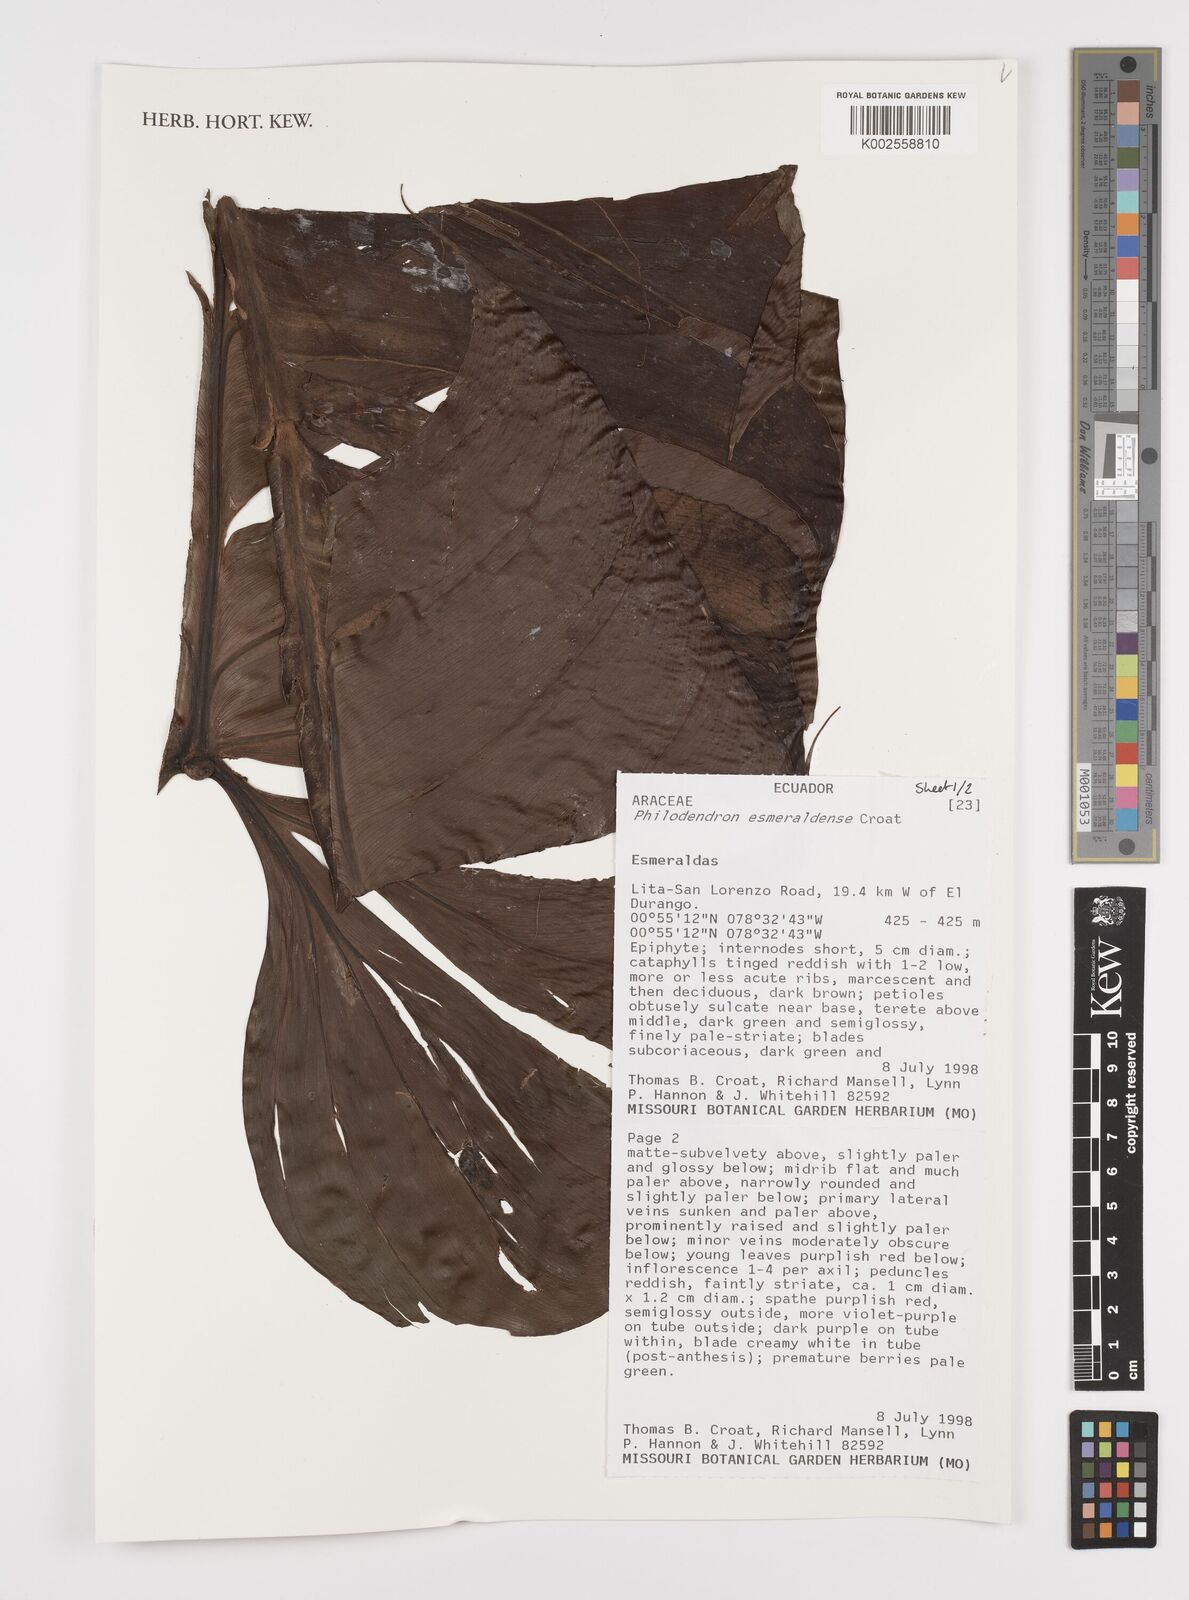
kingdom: Plantae
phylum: Tracheophyta
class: Liliopsida
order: Alismatales
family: Araceae
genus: Philodendron
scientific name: Philodendron esmeraldense
